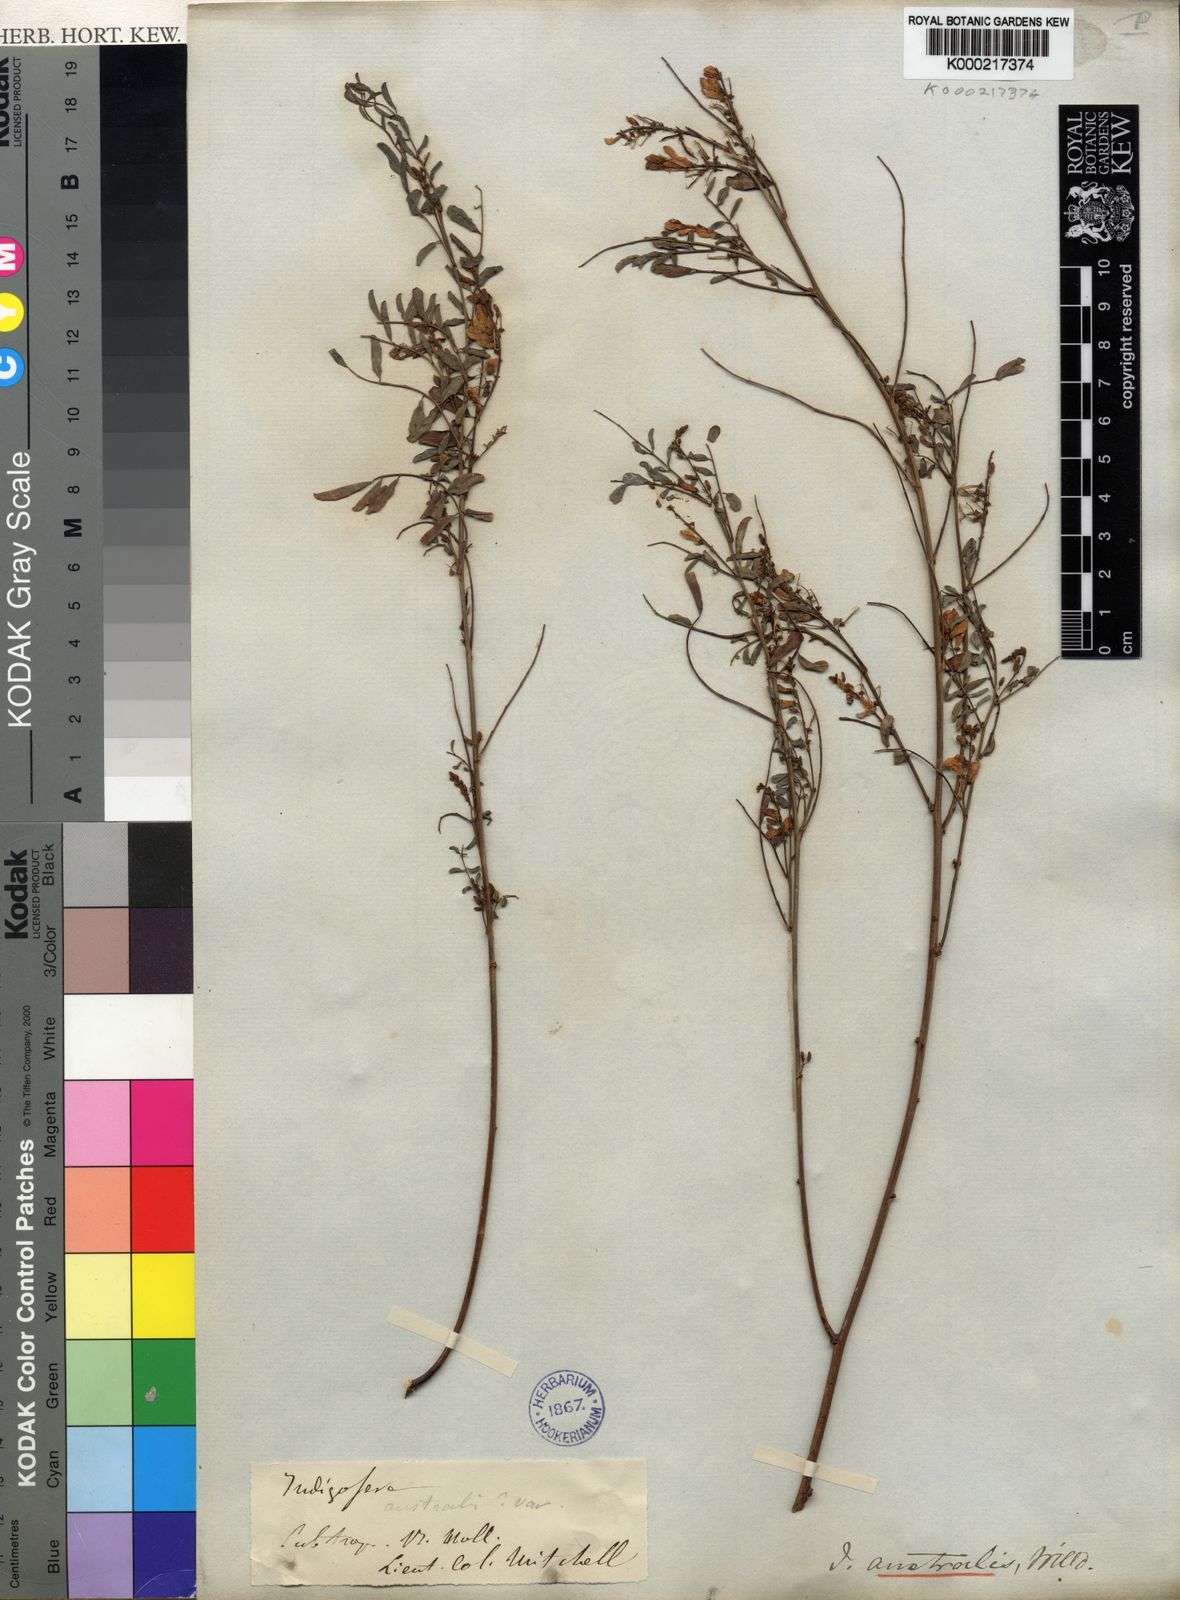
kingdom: Plantae
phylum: Tracheophyta
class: Magnoliopsida
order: Fabales
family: Fabaceae
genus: Indigofera
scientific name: Indigofera australis
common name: Australian indigo
